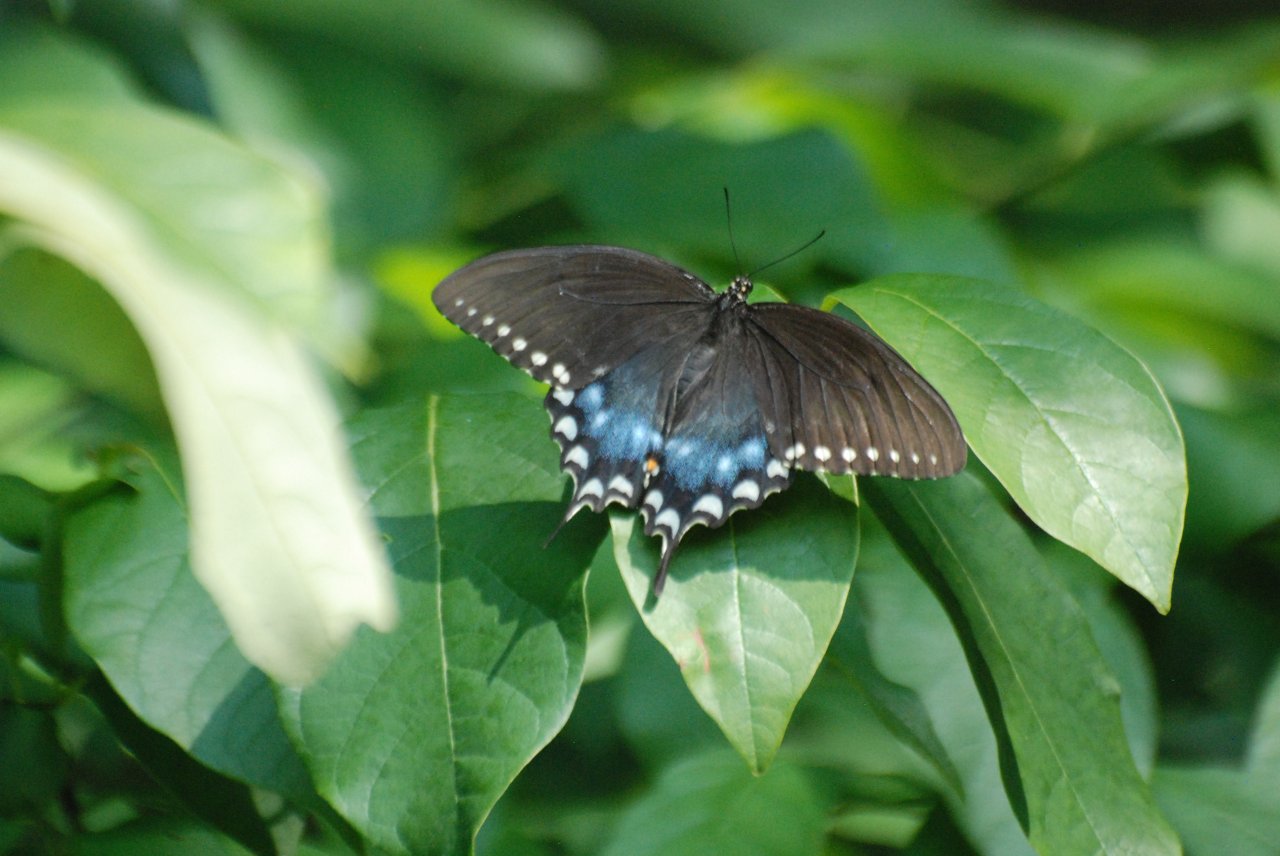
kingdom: Animalia
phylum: Arthropoda
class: Insecta
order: Lepidoptera
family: Papilionidae
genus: Pterourus
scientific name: Pterourus troilus
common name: Spicebush Swallowtail
